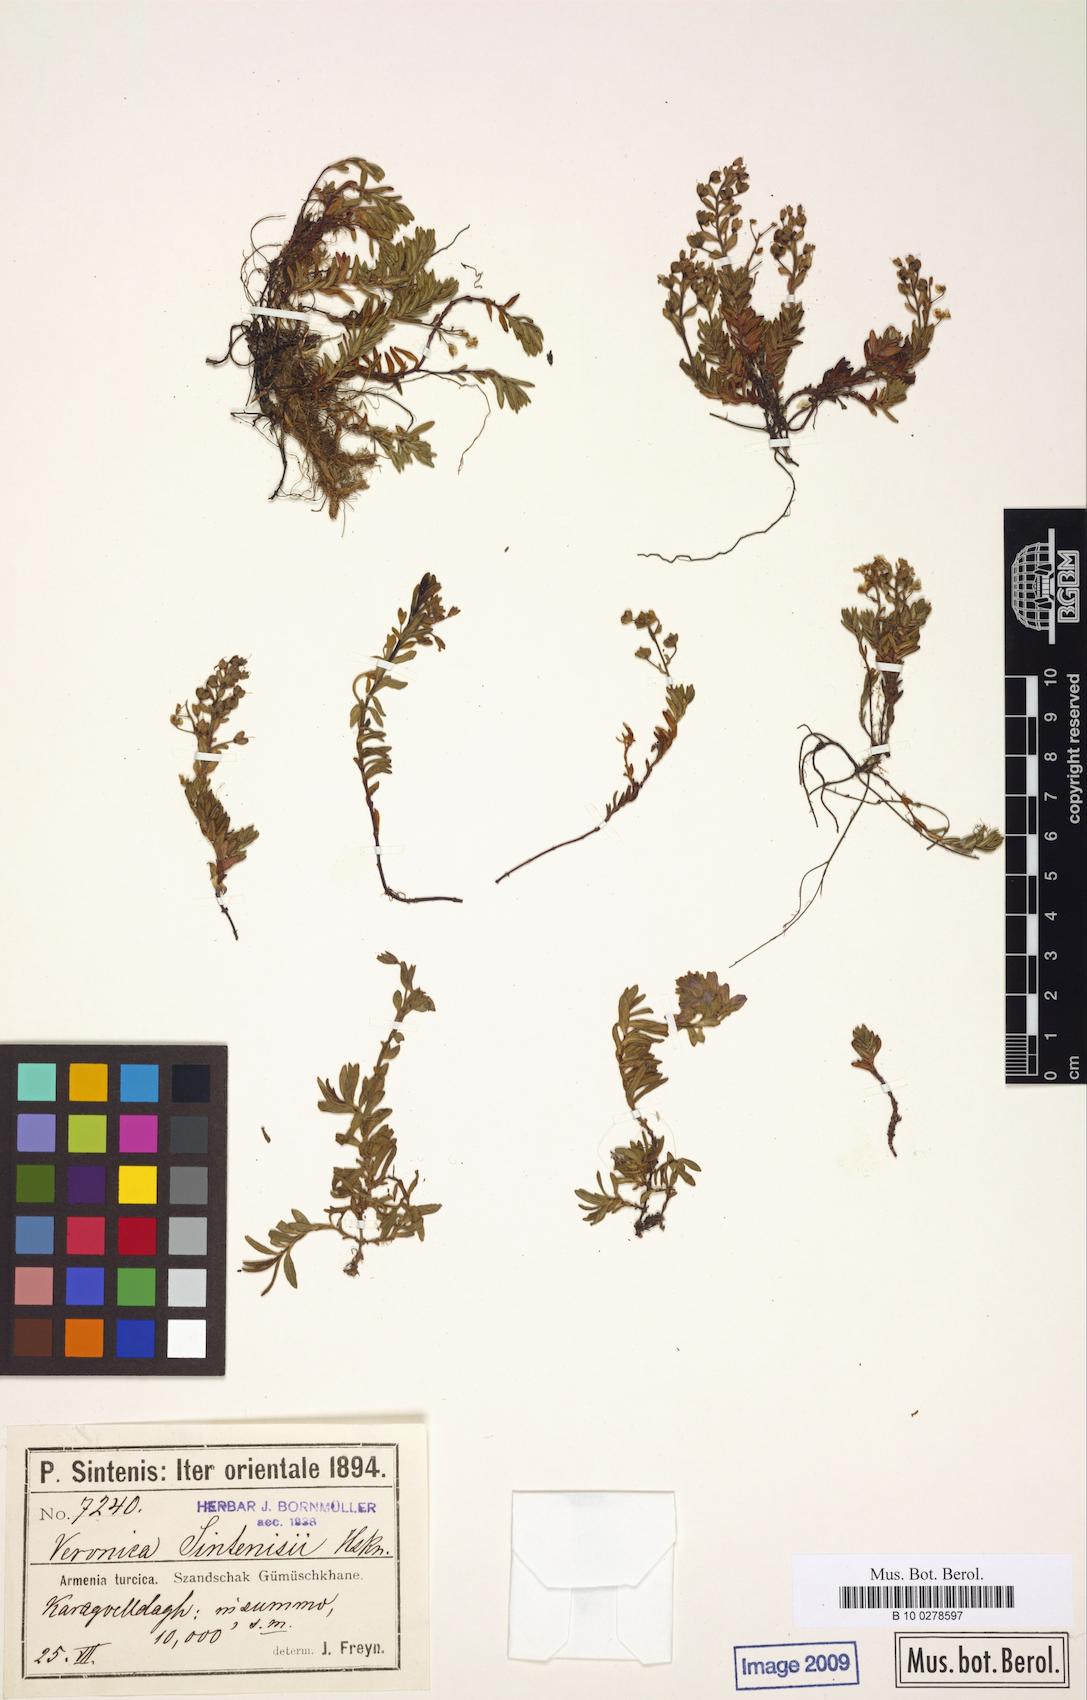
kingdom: Plantae
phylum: Tracheophyta
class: Magnoliopsida
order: Lamiales
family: Plantaginaceae
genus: Veronica
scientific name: Veronica denudata
